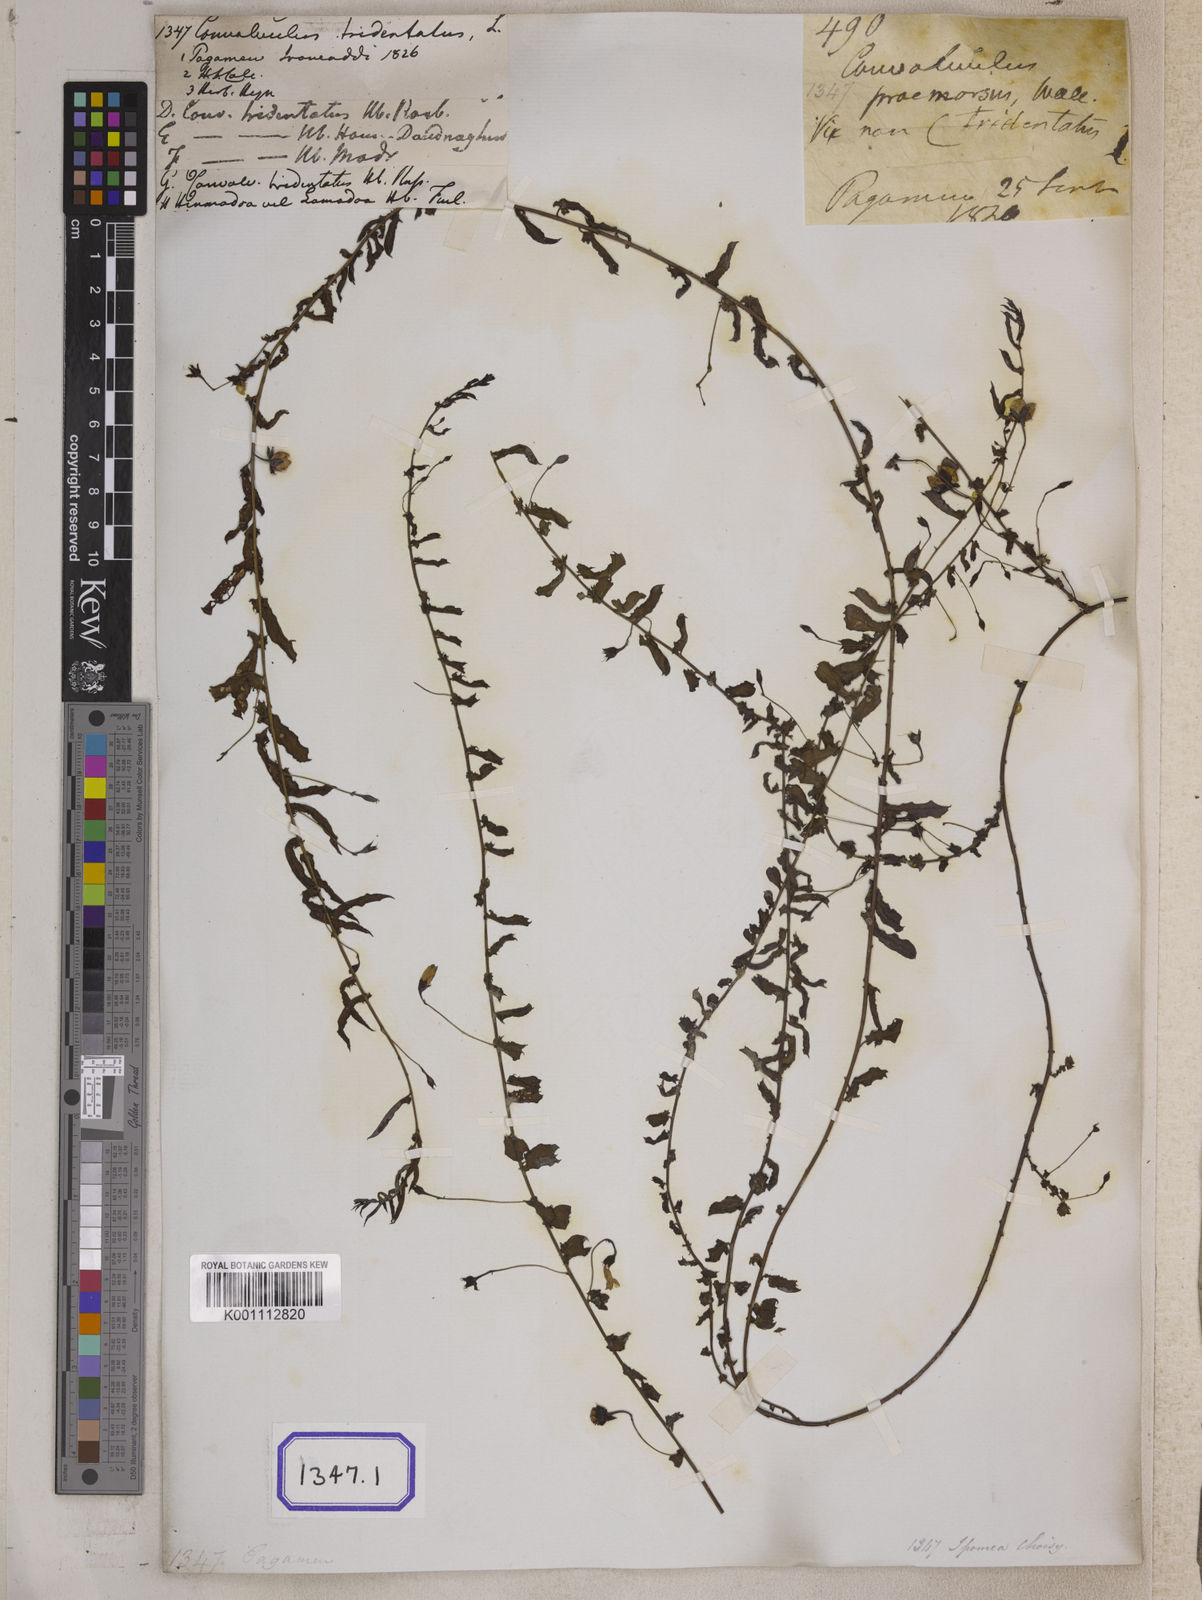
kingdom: Plantae
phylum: Tracheophyta
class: Magnoliopsida
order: Solanales
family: Convolvulaceae
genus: Xenostegia
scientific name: Xenostegia tridentata
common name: African morningvine
